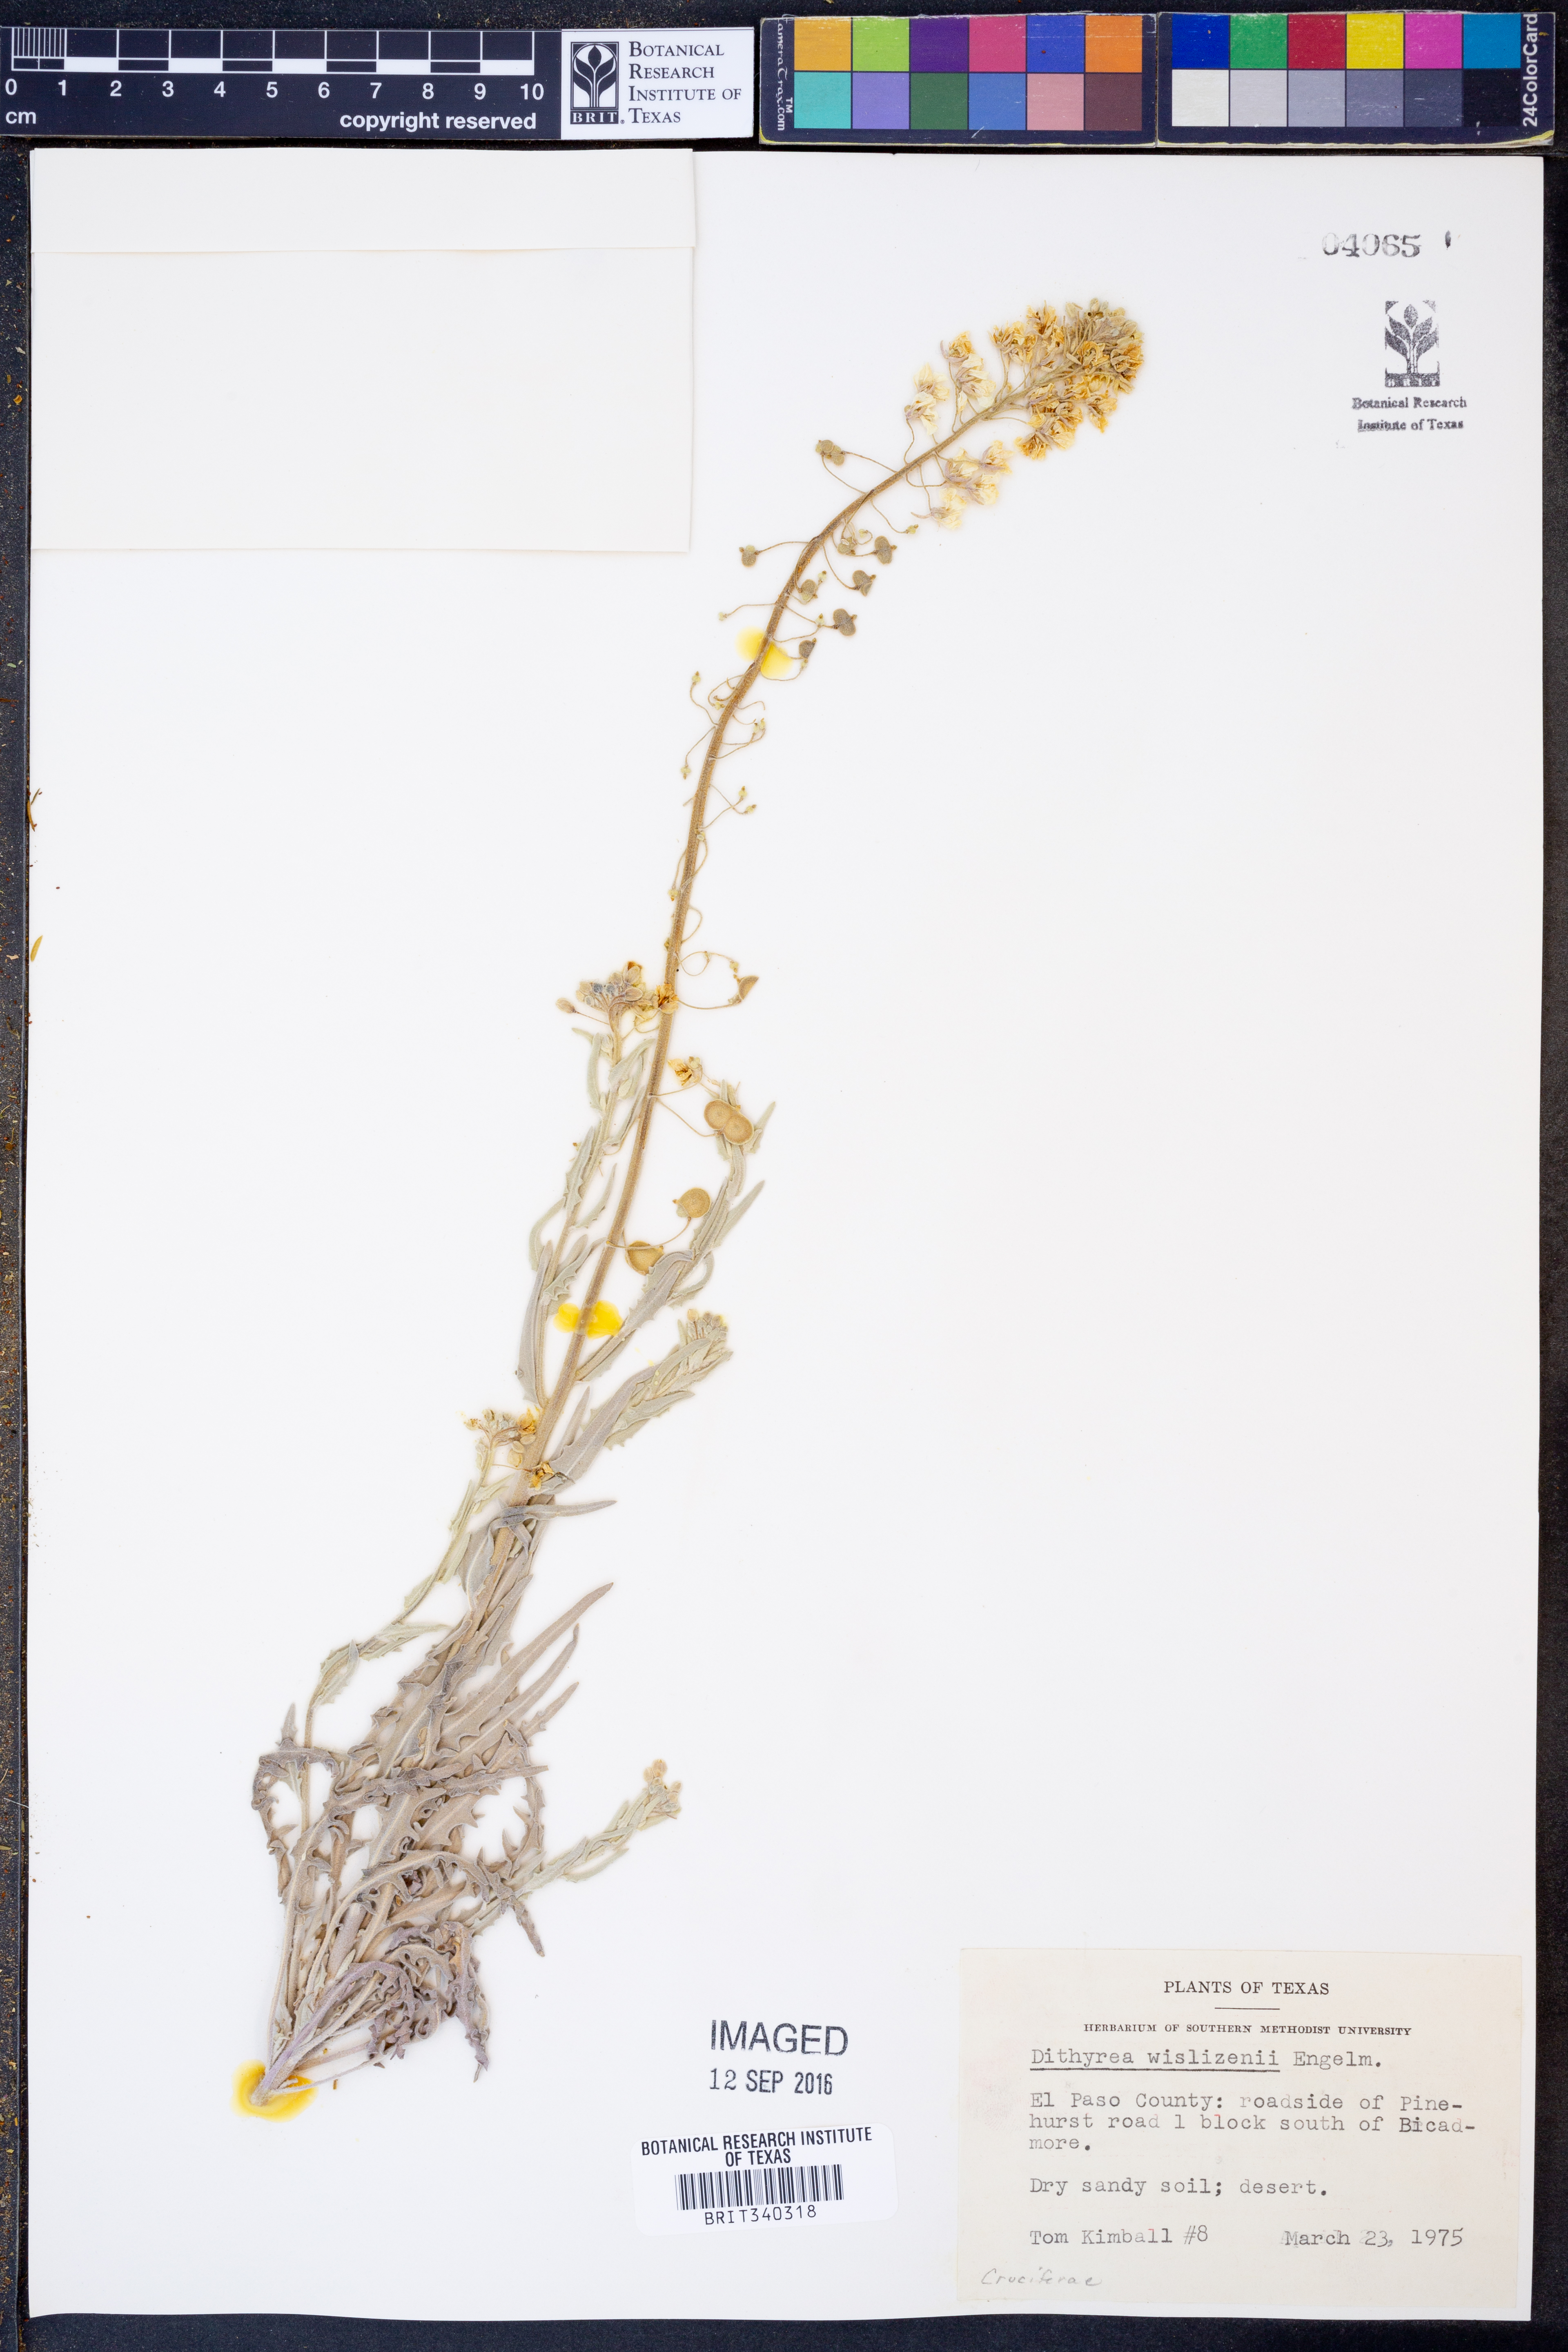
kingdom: Plantae
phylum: Tracheophyta
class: Magnoliopsida
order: Brassicales
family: Brassicaceae
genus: Dimorphocarpa
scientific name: Dimorphocarpa wislizenii
